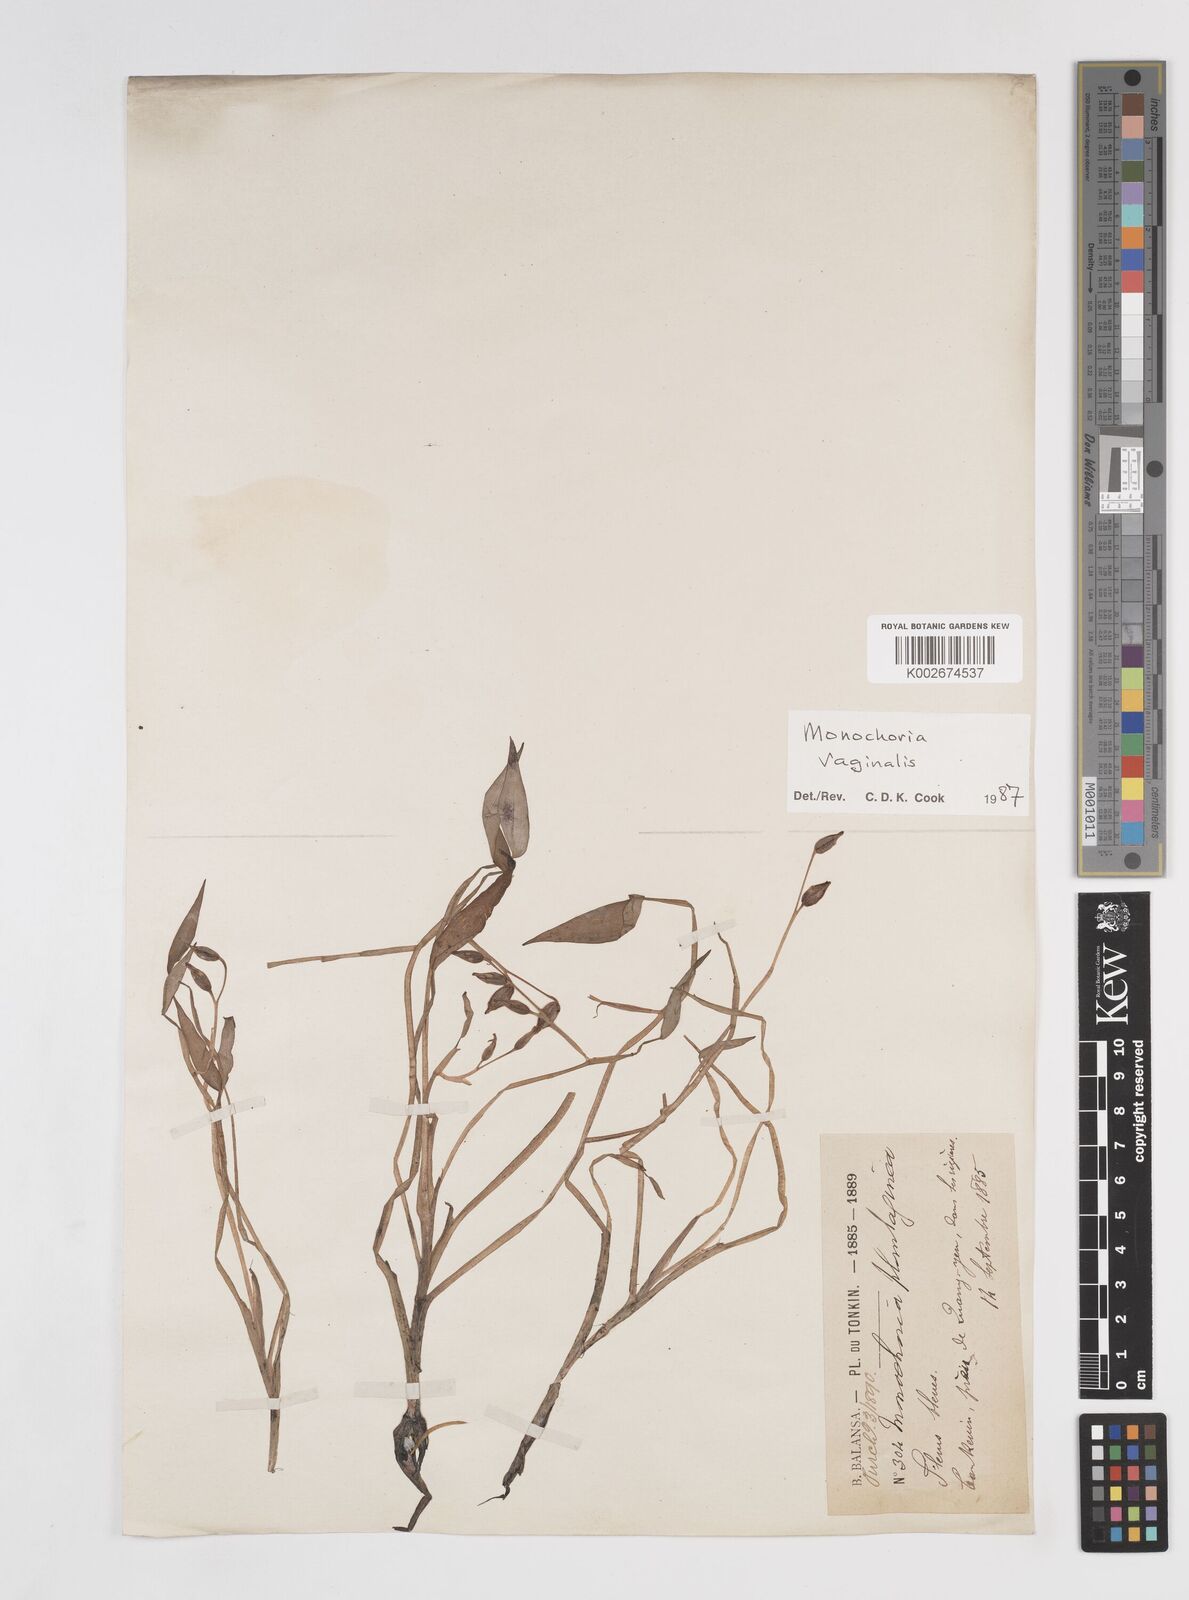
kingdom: Plantae
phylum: Tracheophyta
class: Liliopsida
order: Commelinales
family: Pontederiaceae
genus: Pontederia
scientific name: Pontederia vaginalis
